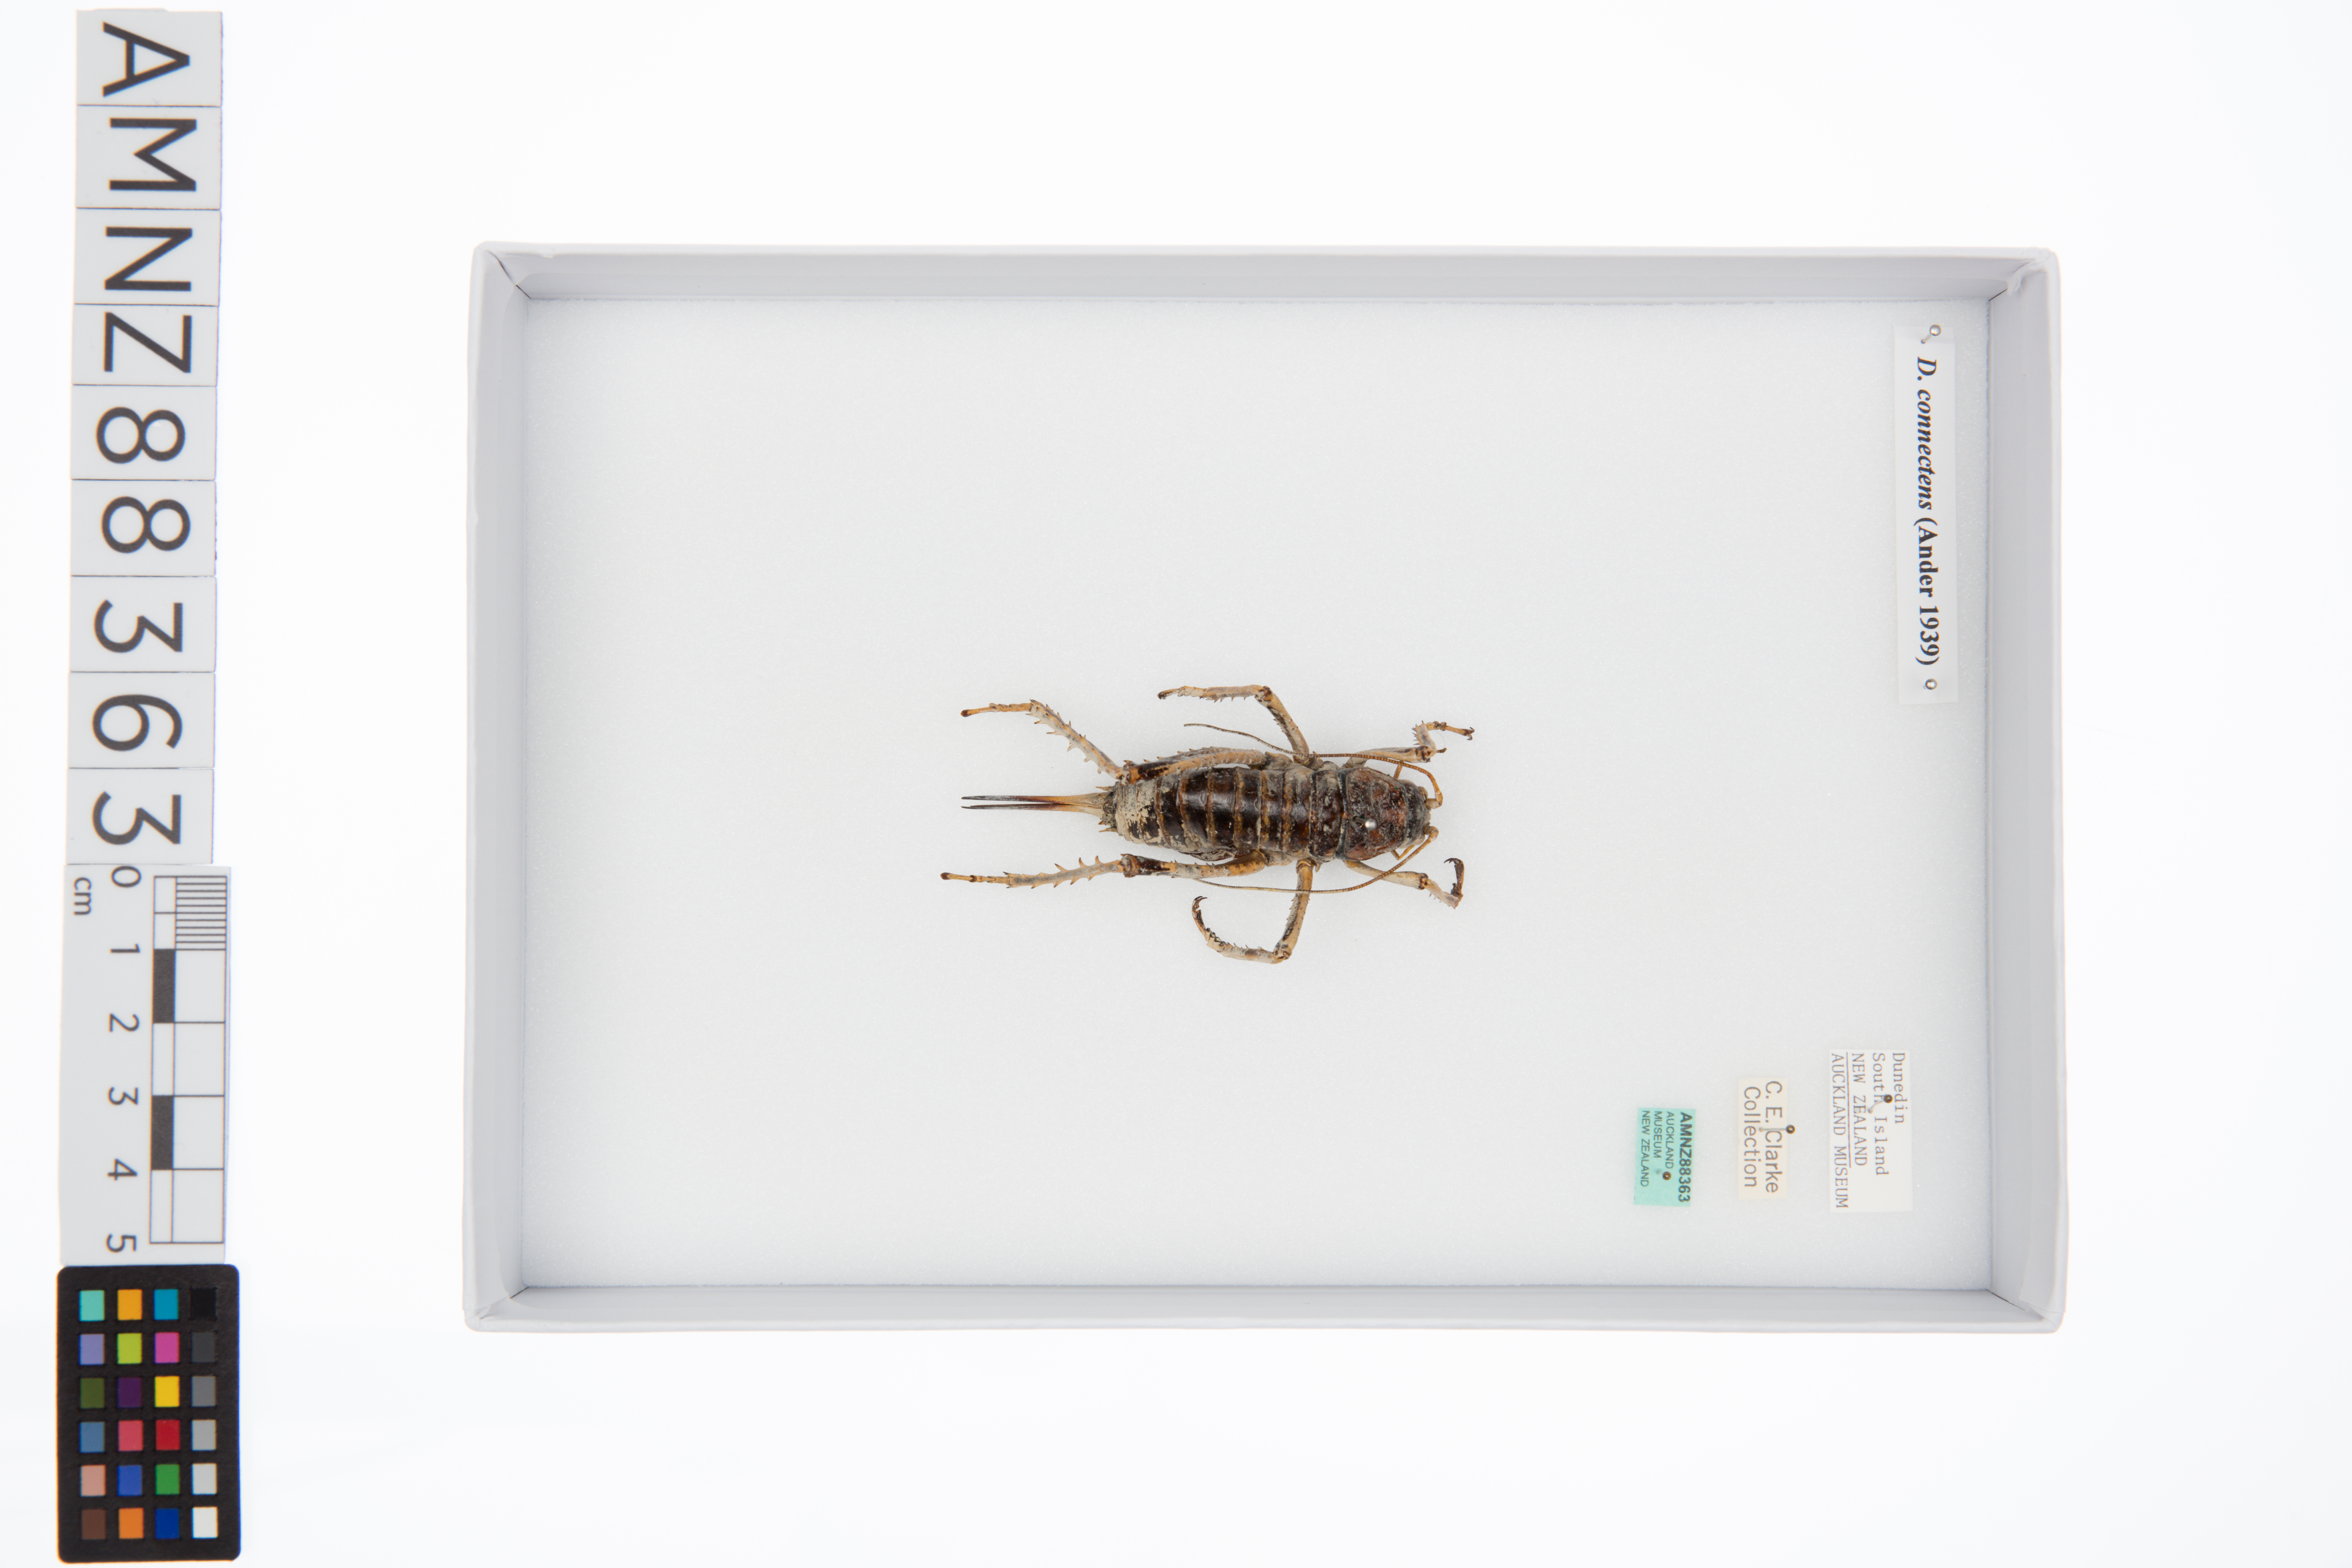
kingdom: Animalia
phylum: Arthropoda
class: Insecta
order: Orthoptera
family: Anostostomatidae
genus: Deinacrida
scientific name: Deinacrida connectens
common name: Scree weta
